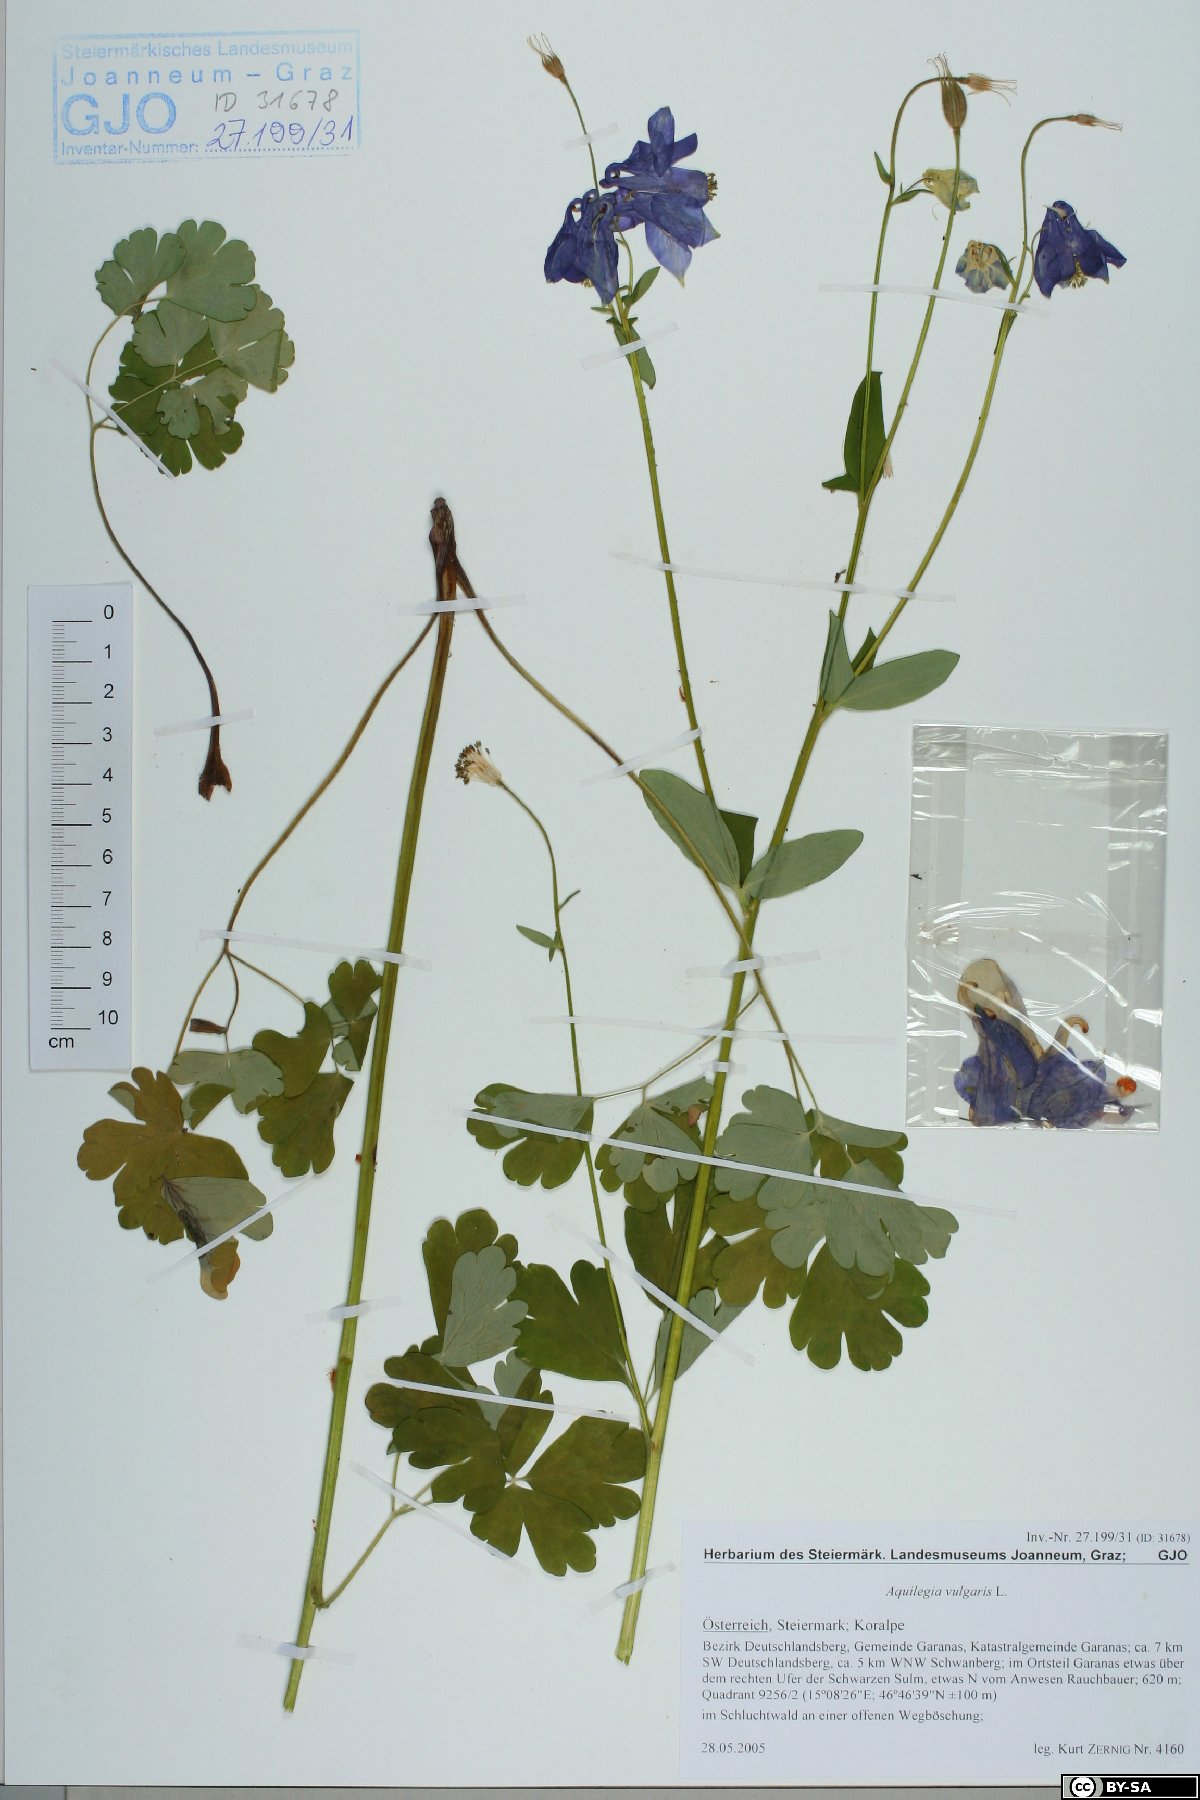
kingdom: Plantae
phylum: Tracheophyta
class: Magnoliopsida
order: Ranunculales
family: Ranunculaceae
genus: Aquilegia
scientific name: Aquilegia vulgaris
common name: Columbine
